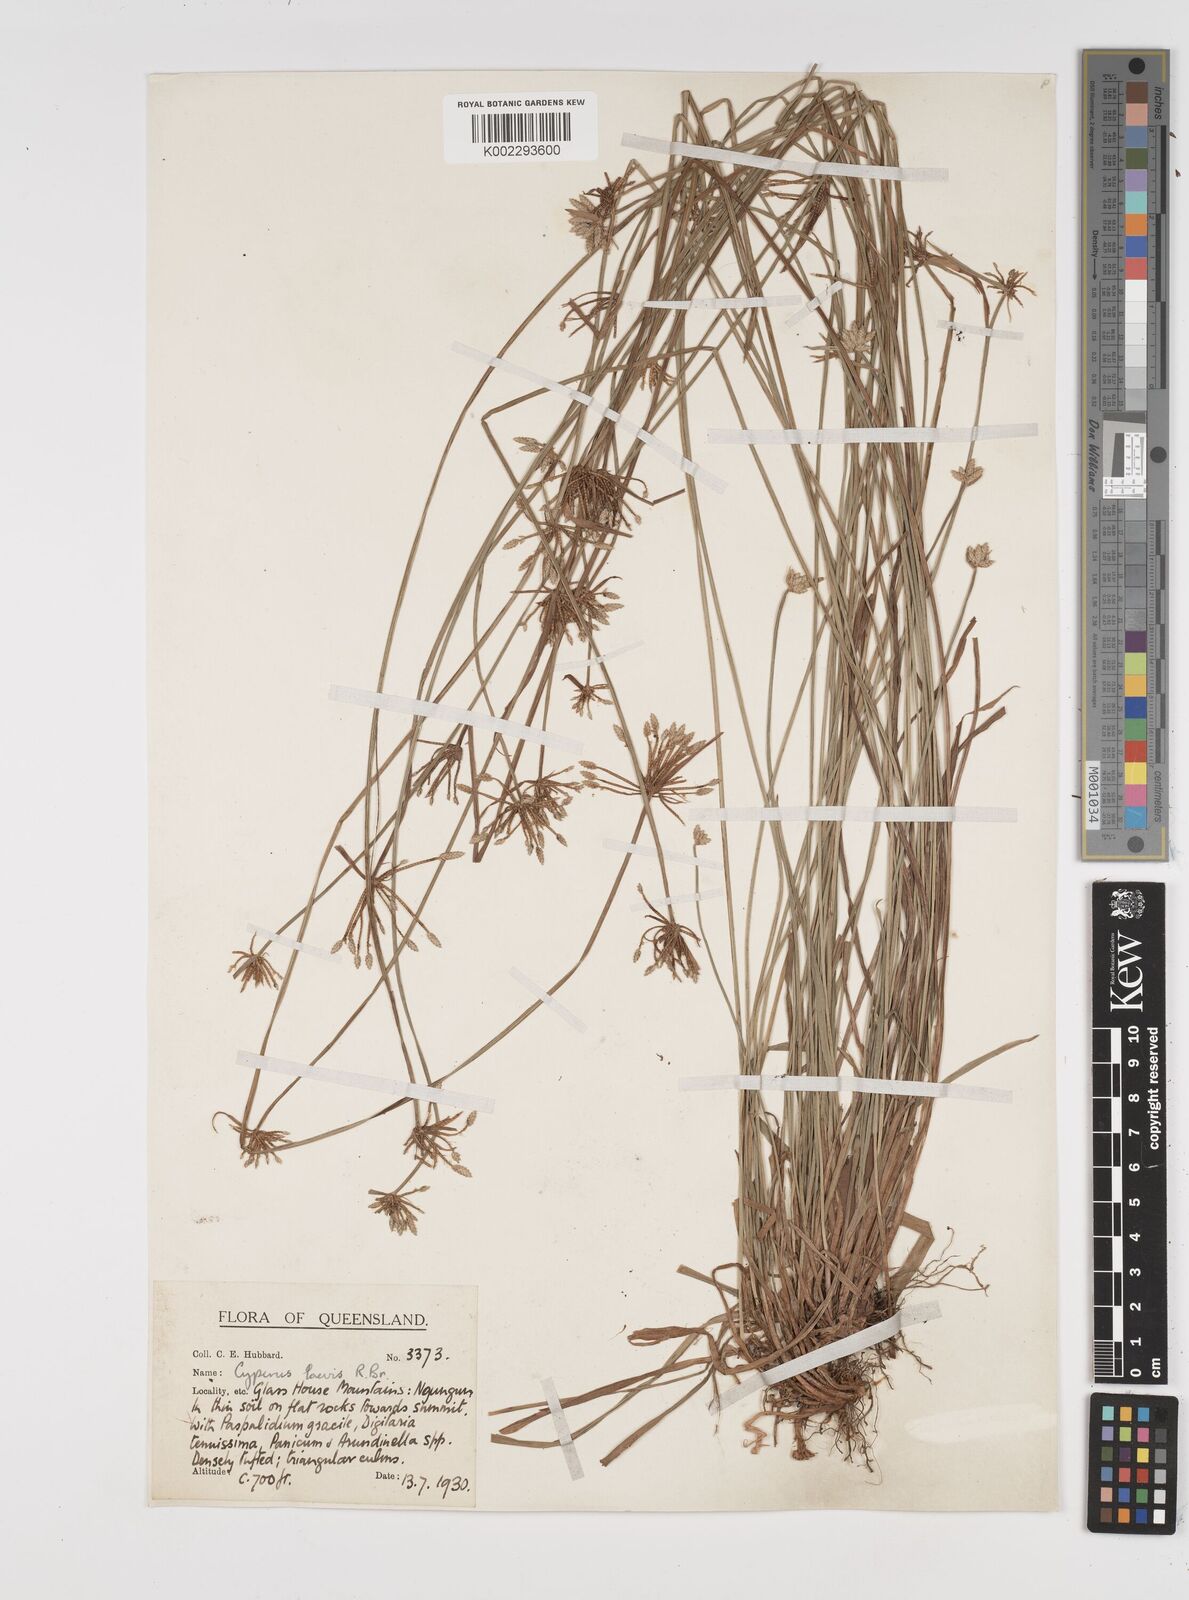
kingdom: Plantae
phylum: Tracheophyta
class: Liliopsida
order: Poales
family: Cyperaceae
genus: Cyperus
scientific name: Cyperus laevis
